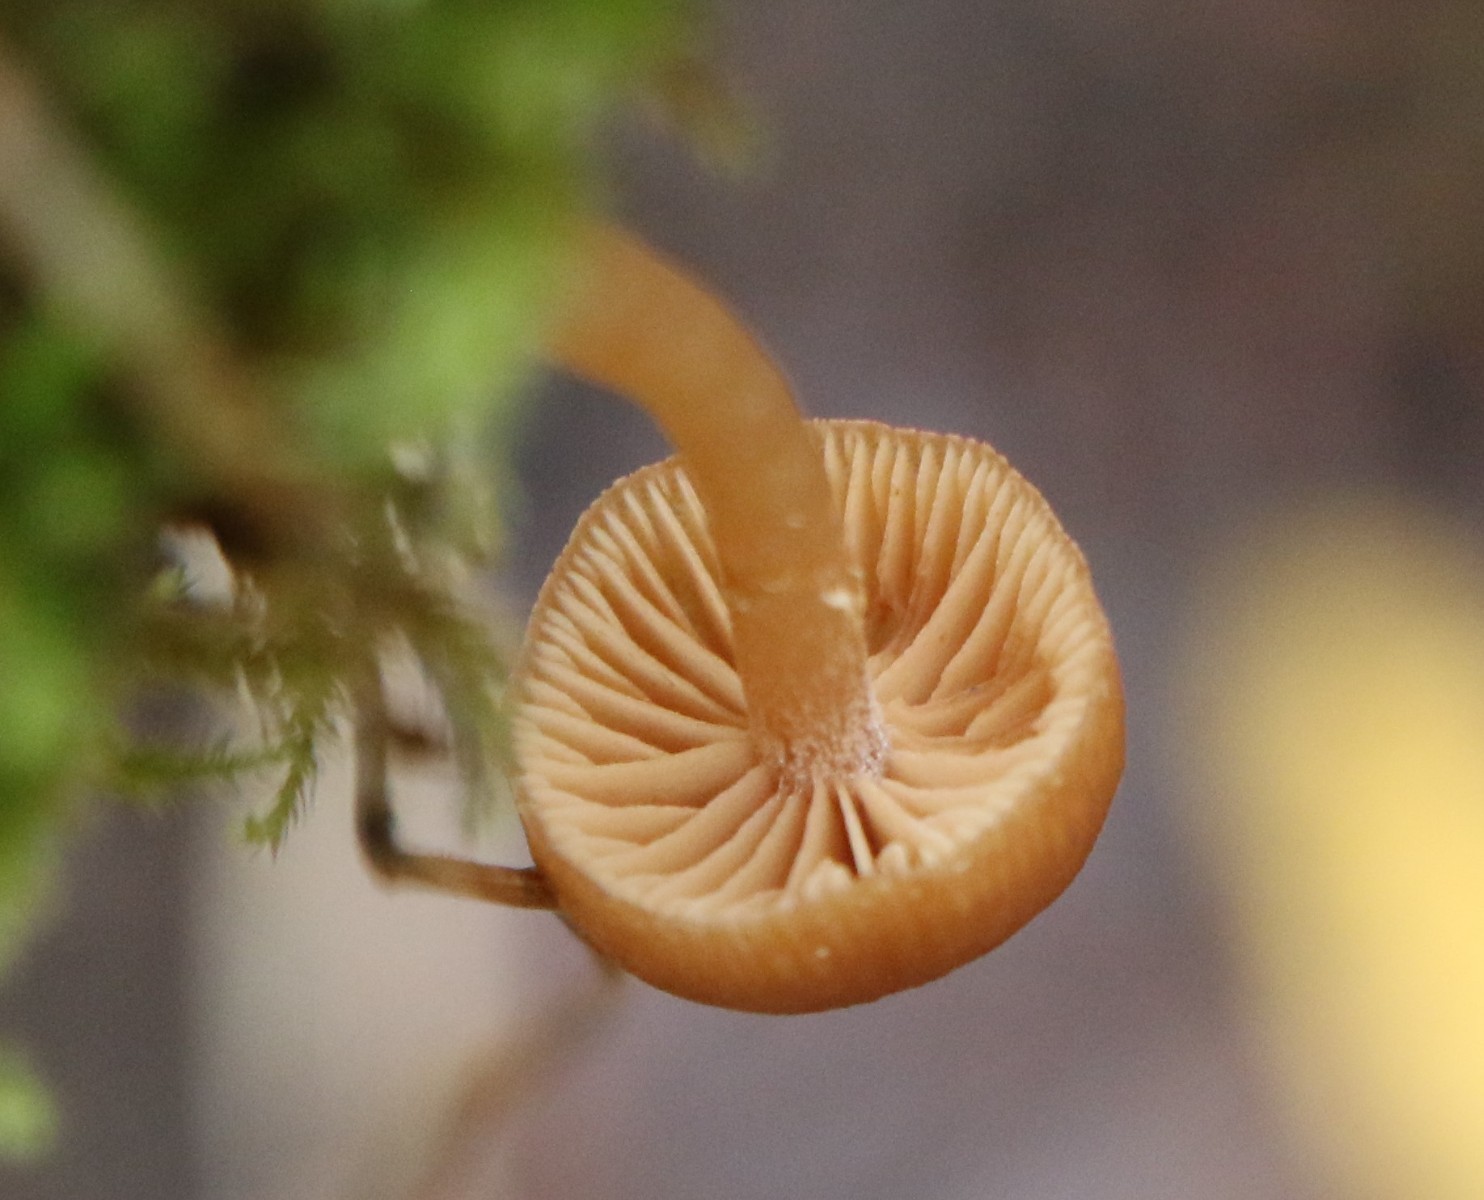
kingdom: Fungi
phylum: Basidiomycota
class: Agaricomycetes
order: Agaricales
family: Hymenogastraceae
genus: Galerina
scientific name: Galerina
